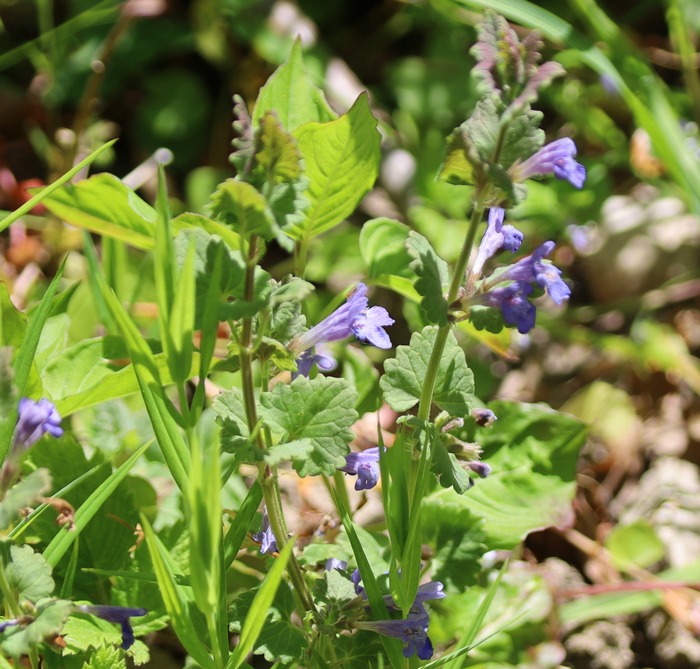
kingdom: Plantae
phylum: Tracheophyta
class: Magnoliopsida
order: Lamiales
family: Lamiaceae
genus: Glechoma
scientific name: Glechoma hederacea
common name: Korsknap
